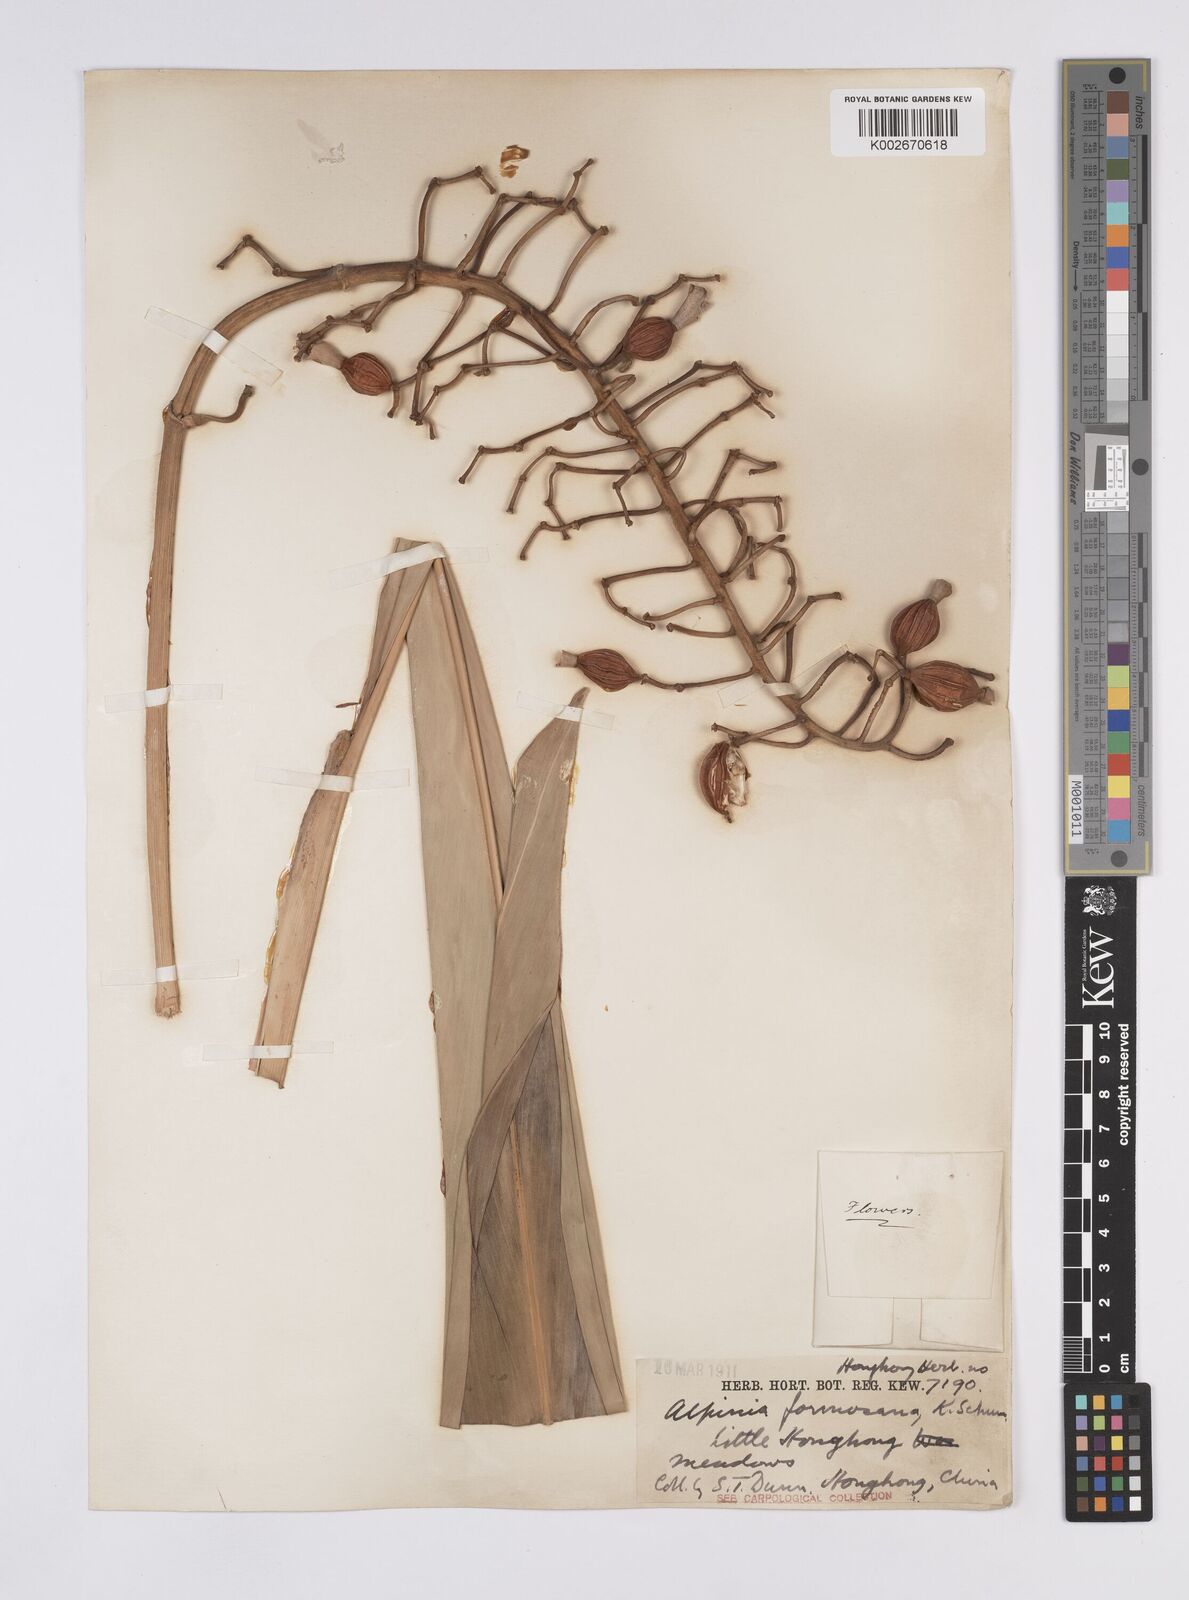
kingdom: Plantae
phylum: Tracheophyta
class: Liliopsida
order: Zingiberales
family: Zingiberaceae
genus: Alpinia
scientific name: Alpinia formosana
